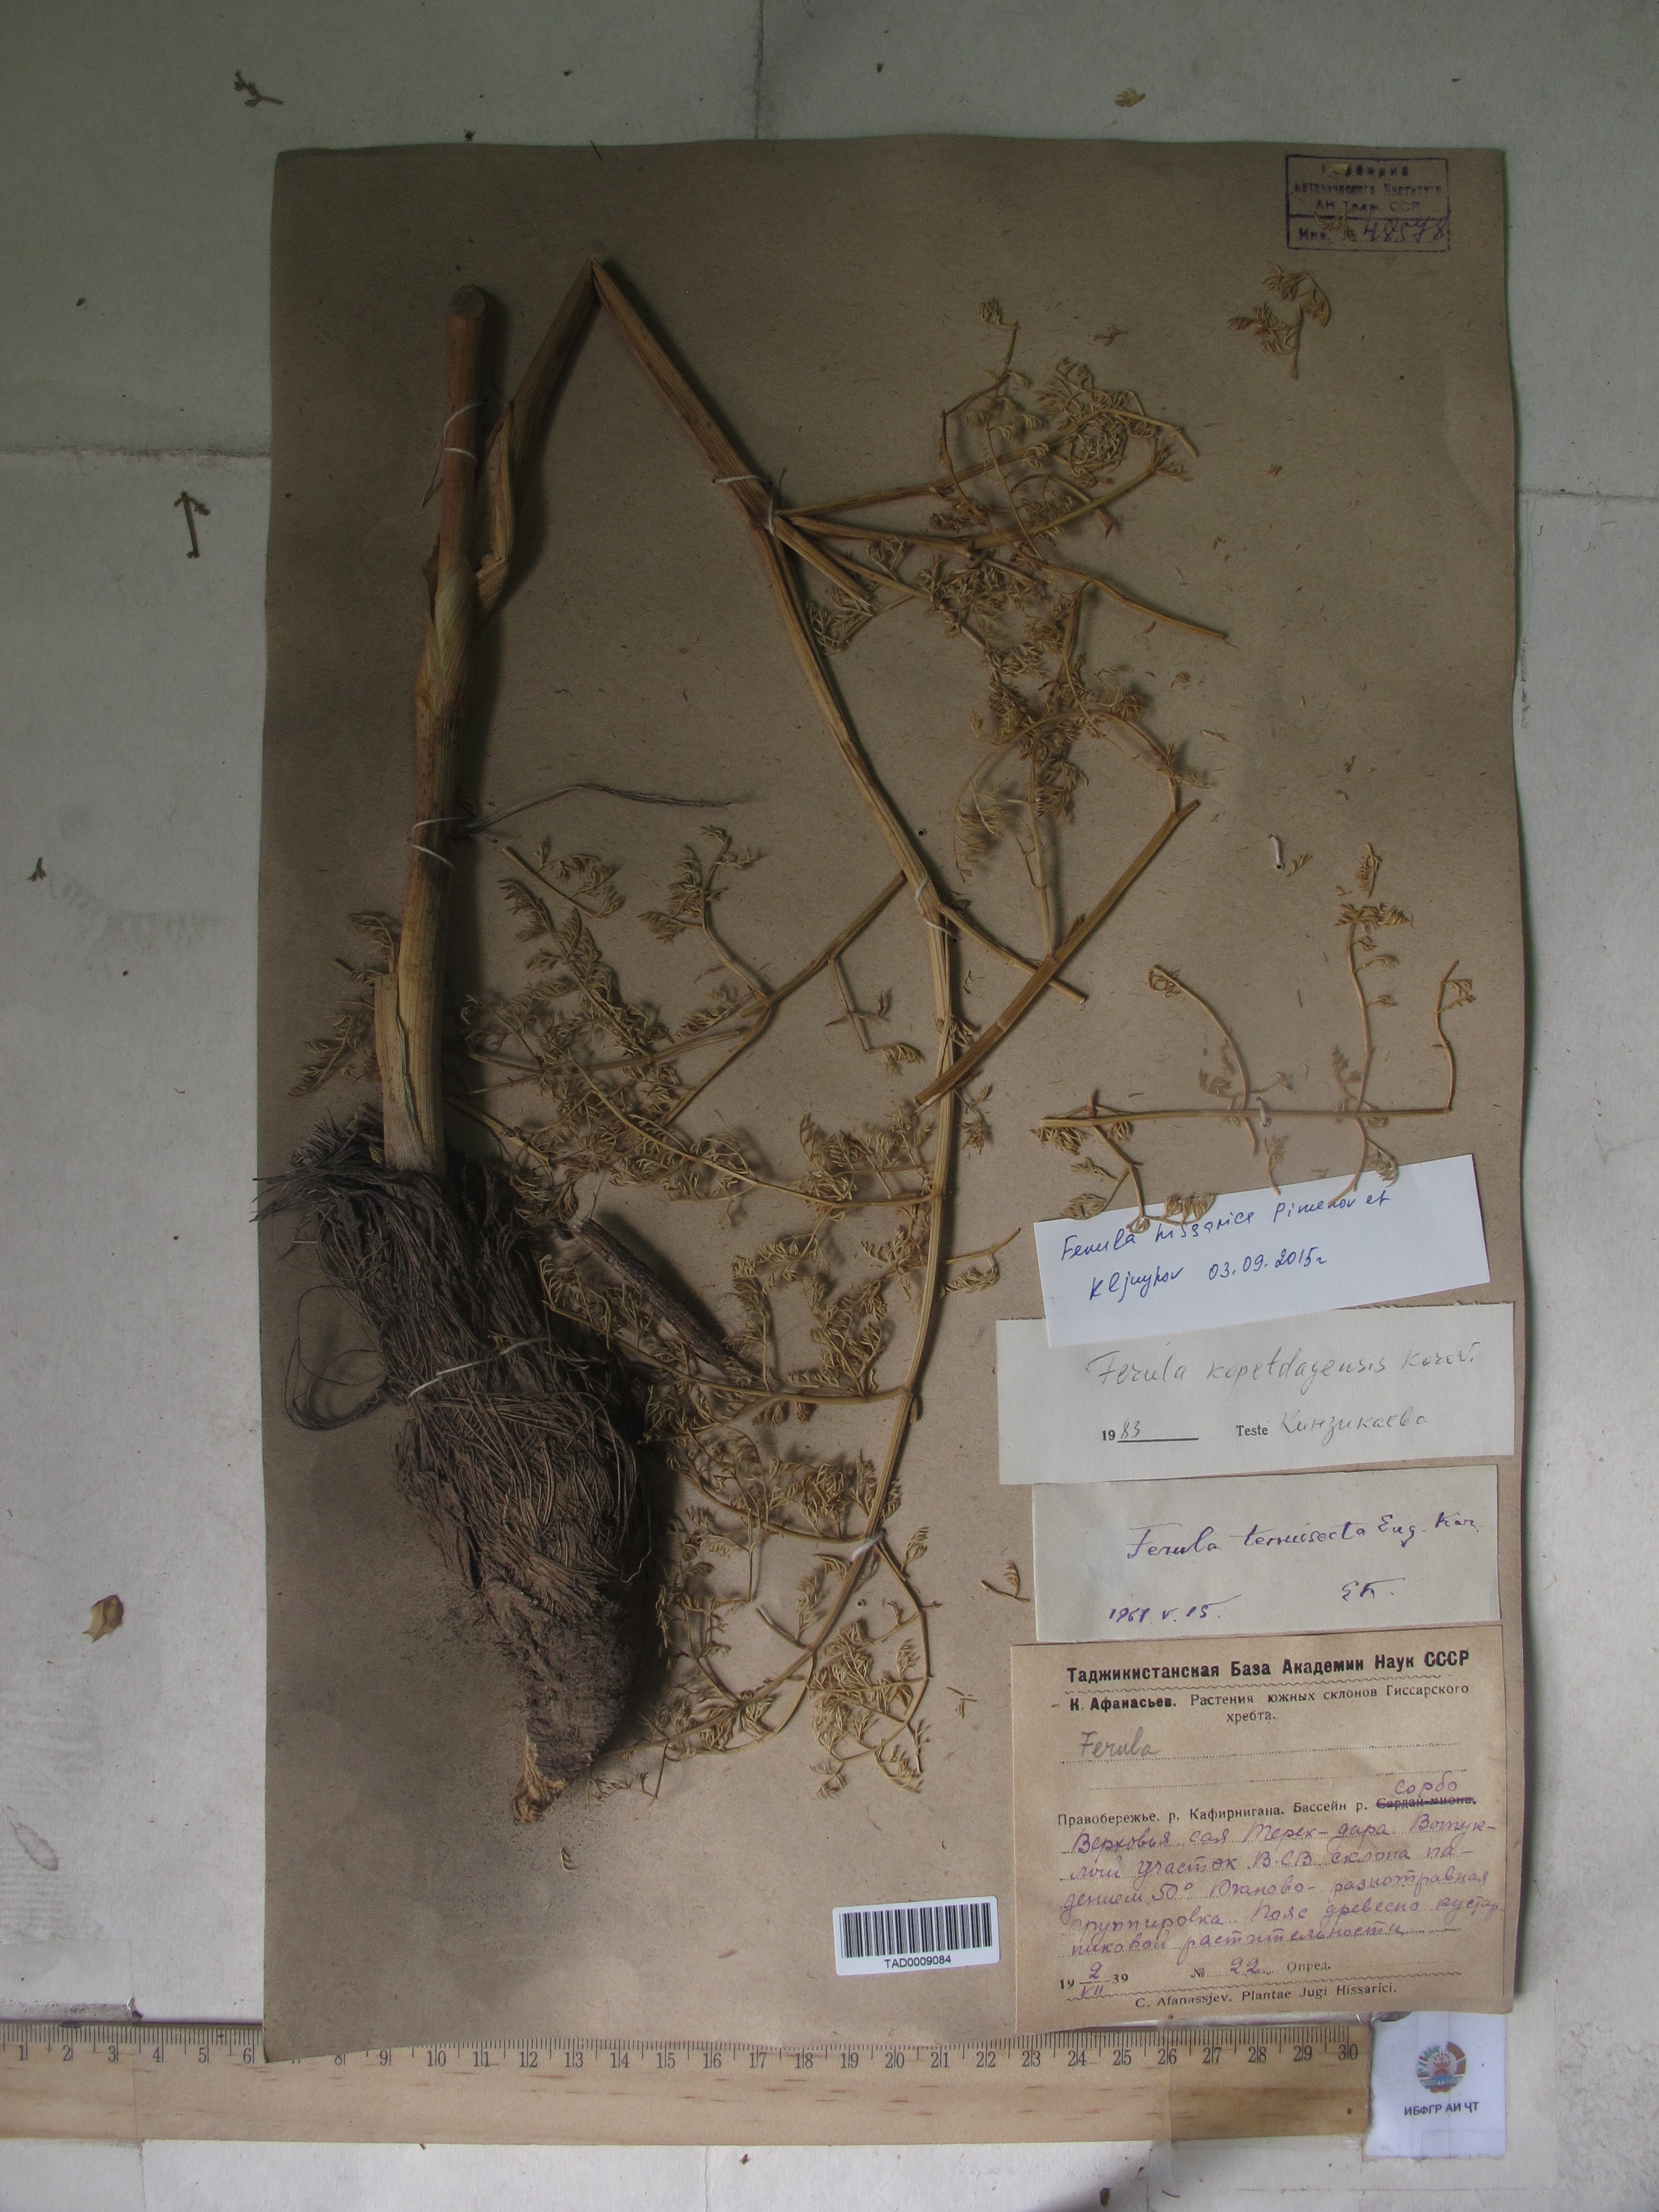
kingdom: Plantae
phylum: Tracheophyta
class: Magnoliopsida
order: Apiales
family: Apiaceae
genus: Ferula
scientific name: Ferula hissarica
